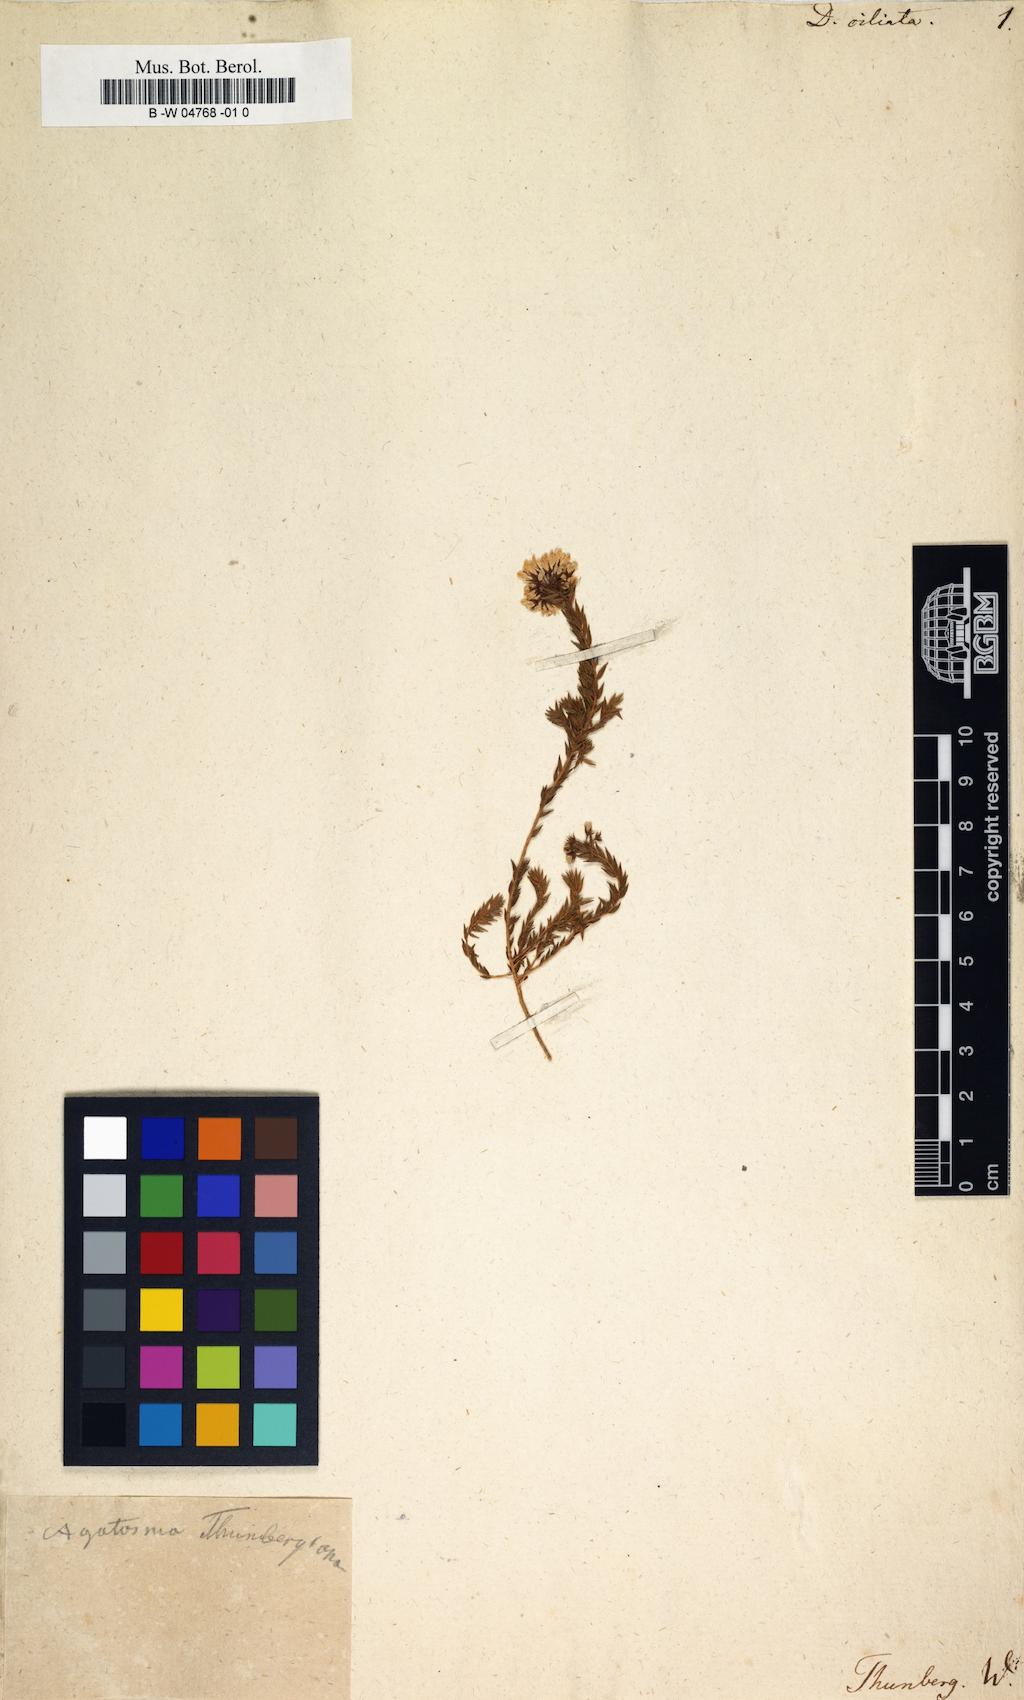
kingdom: Plantae
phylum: Tracheophyta
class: Magnoliopsida
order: Sapindales
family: Rutaceae
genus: Agathosma
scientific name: Agathosma
